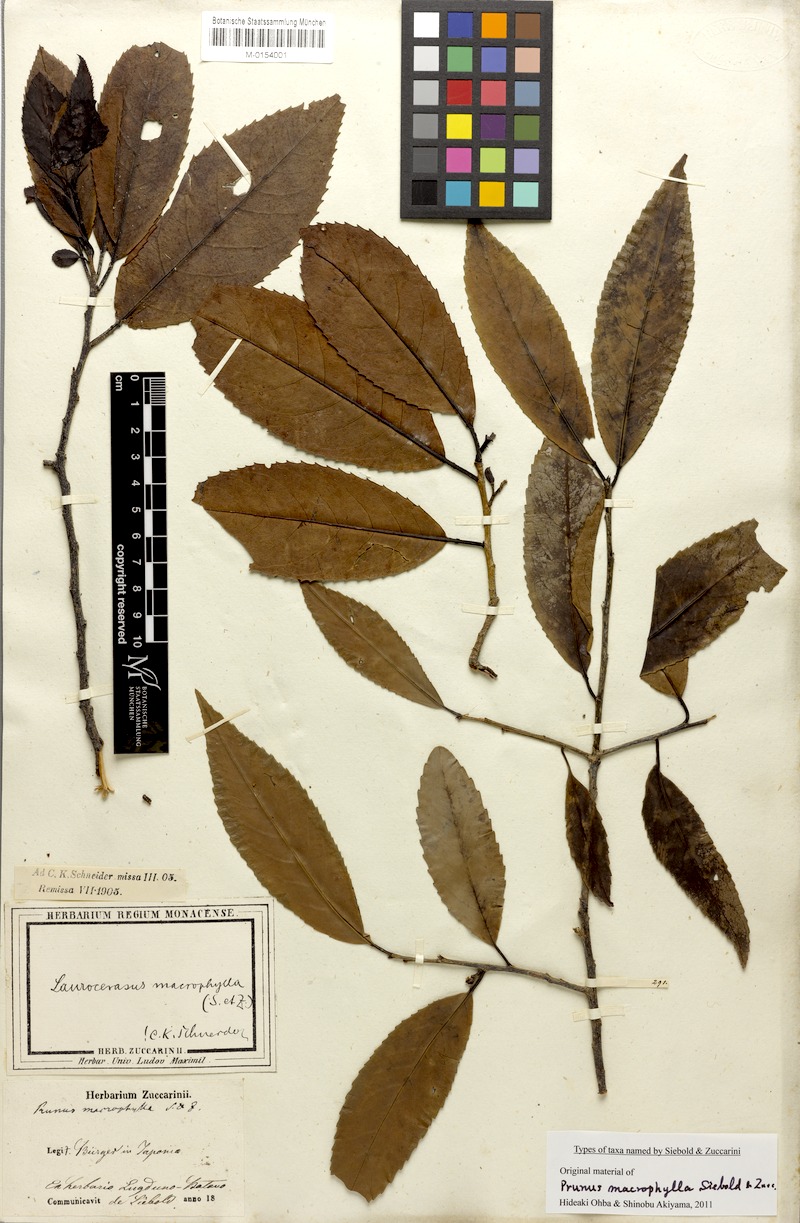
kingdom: Plantae
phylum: Tracheophyta
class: Magnoliopsida
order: Rosales
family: Rosaceae
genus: Prunus
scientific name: Prunus zippeliana
